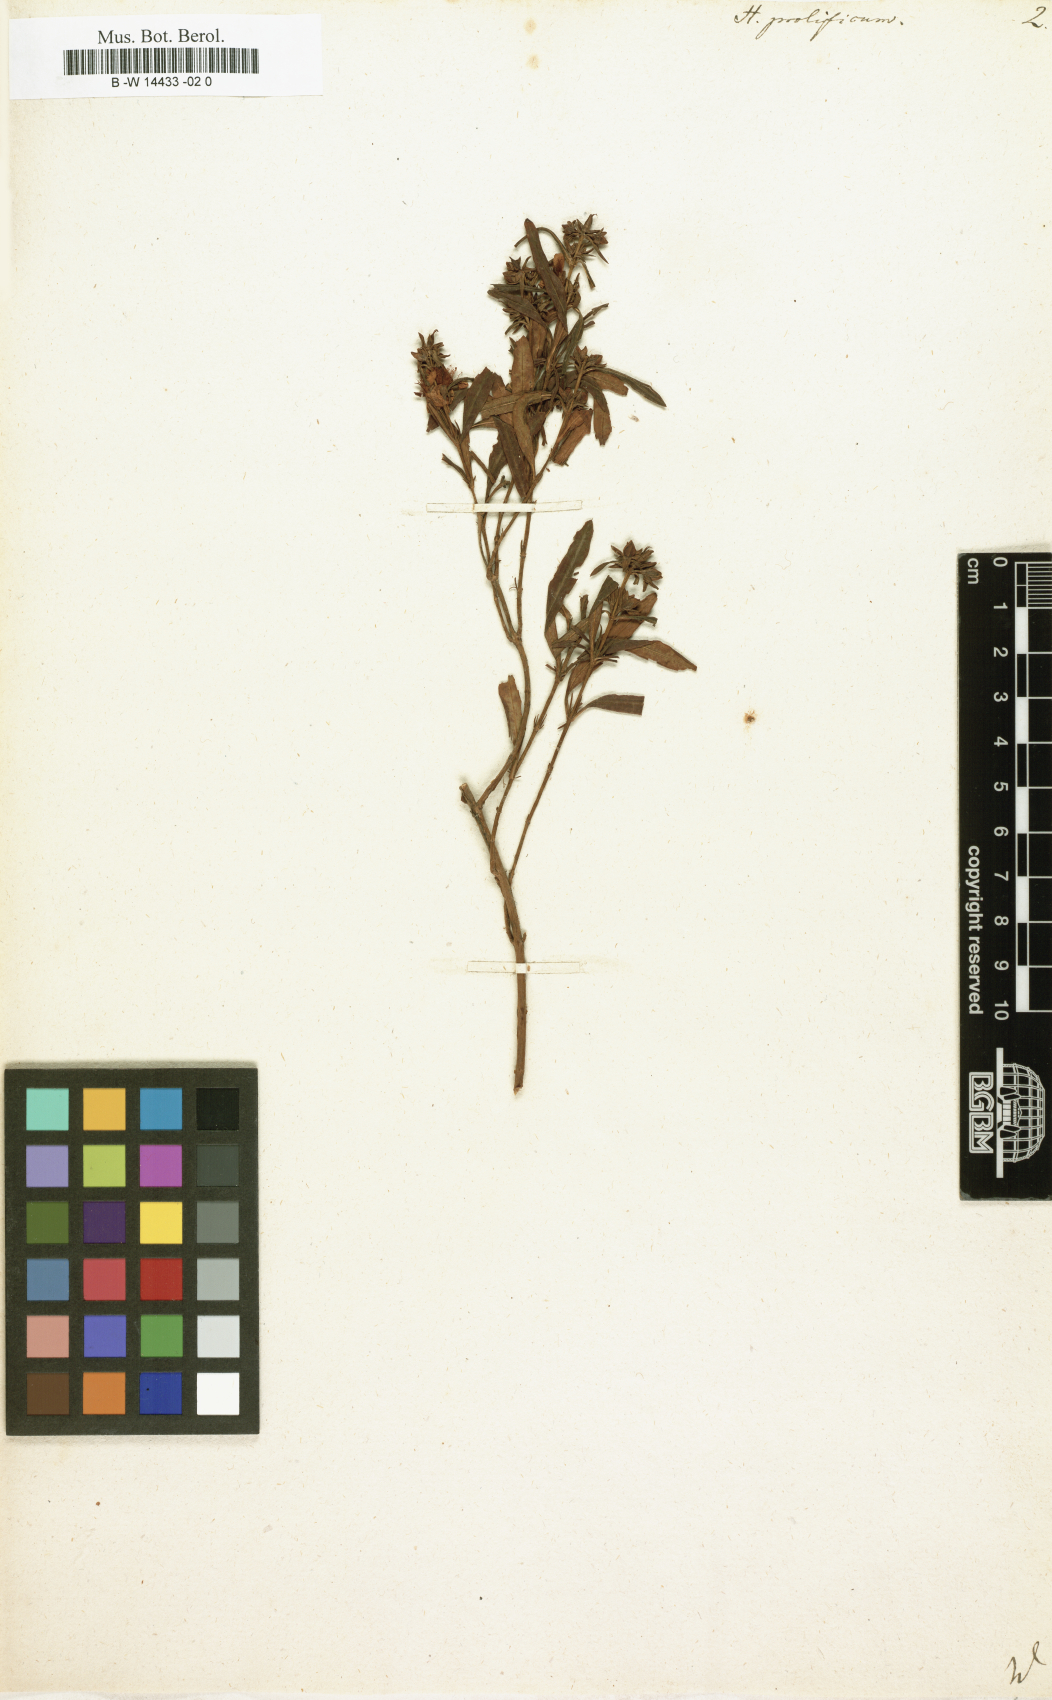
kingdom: Plantae
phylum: Tracheophyta
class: Magnoliopsida
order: Malpighiales
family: Hypericaceae
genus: Hypericum
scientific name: Hypericum prolificum
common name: Shrubby st. john's-wort
